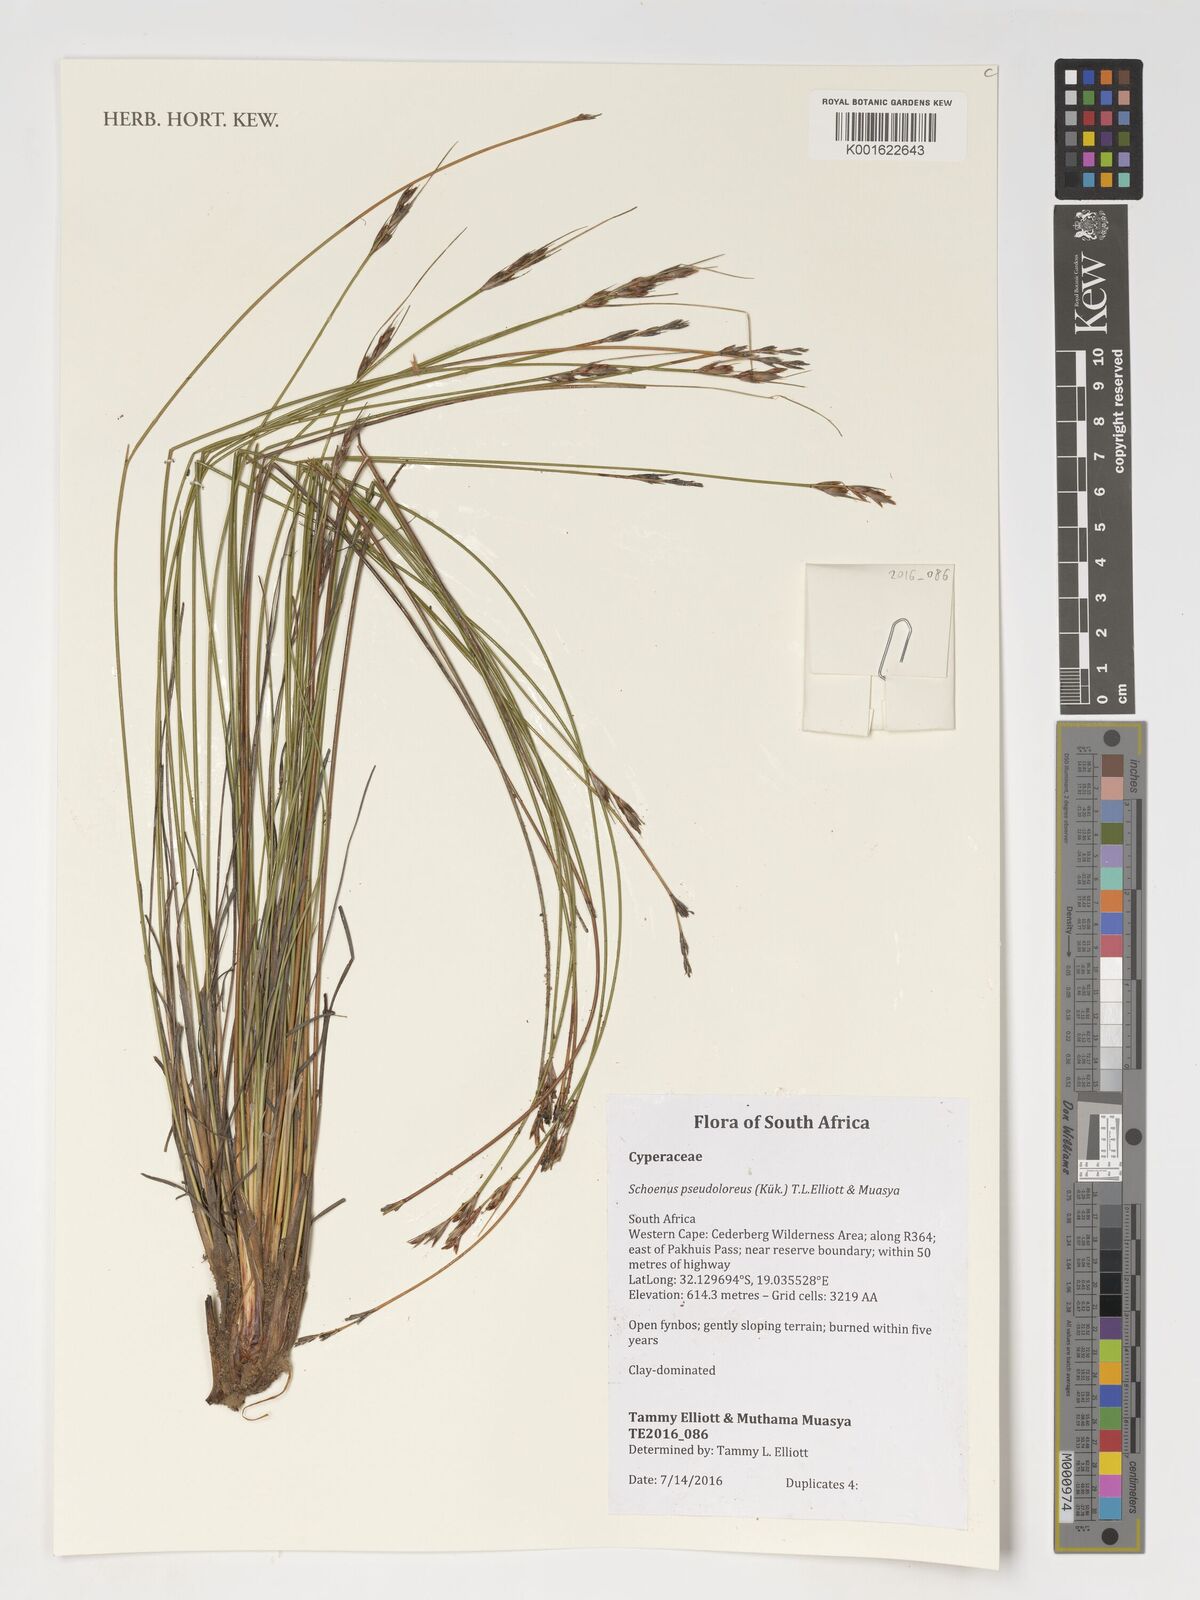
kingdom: Plantae
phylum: Tracheophyta
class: Liliopsida
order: Poales
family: Cyperaceae
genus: Schoenus
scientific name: Schoenus pseudoloreus
